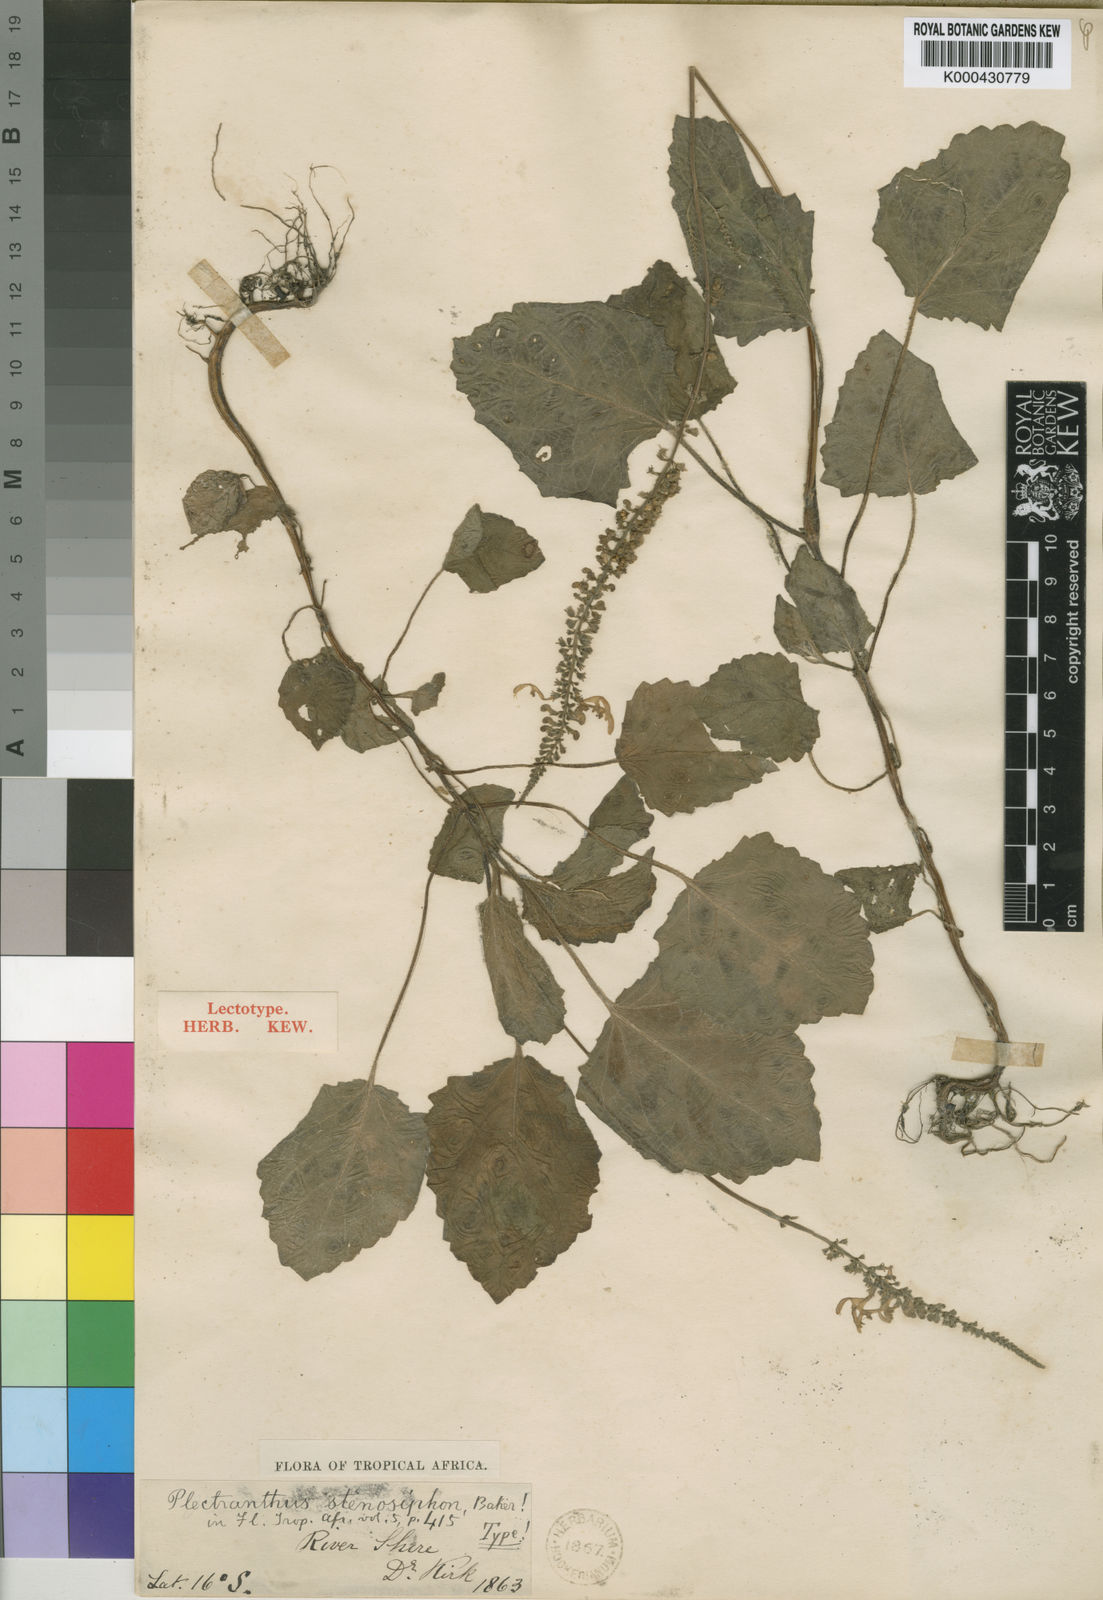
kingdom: Plantae
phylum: Tracheophyta
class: Magnoliopsida
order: Lamiales
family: Lamiaceae
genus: Equilabium
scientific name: Equilabium stenosiphon
